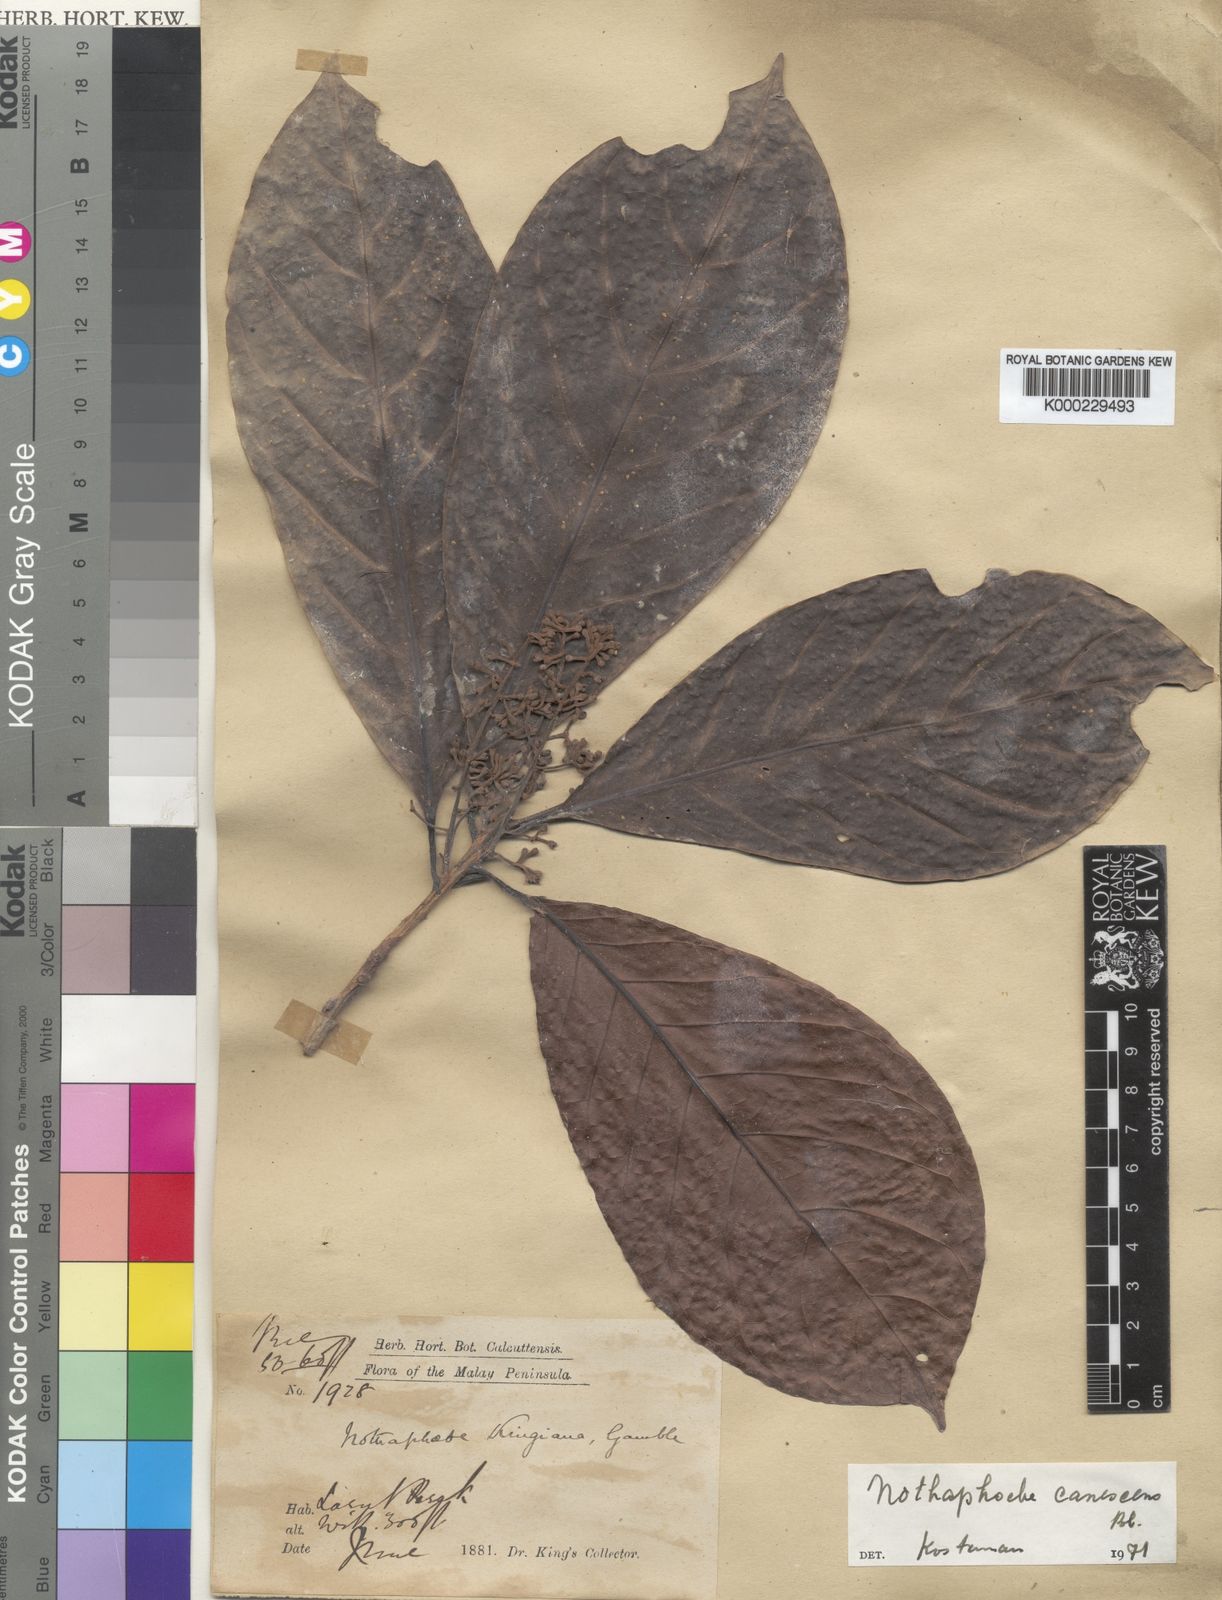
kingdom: Plantae
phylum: Tracheophyta
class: Magnoliopsida
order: Laurales
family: Lauraceae
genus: Phoebe
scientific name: Phoebe canescens
